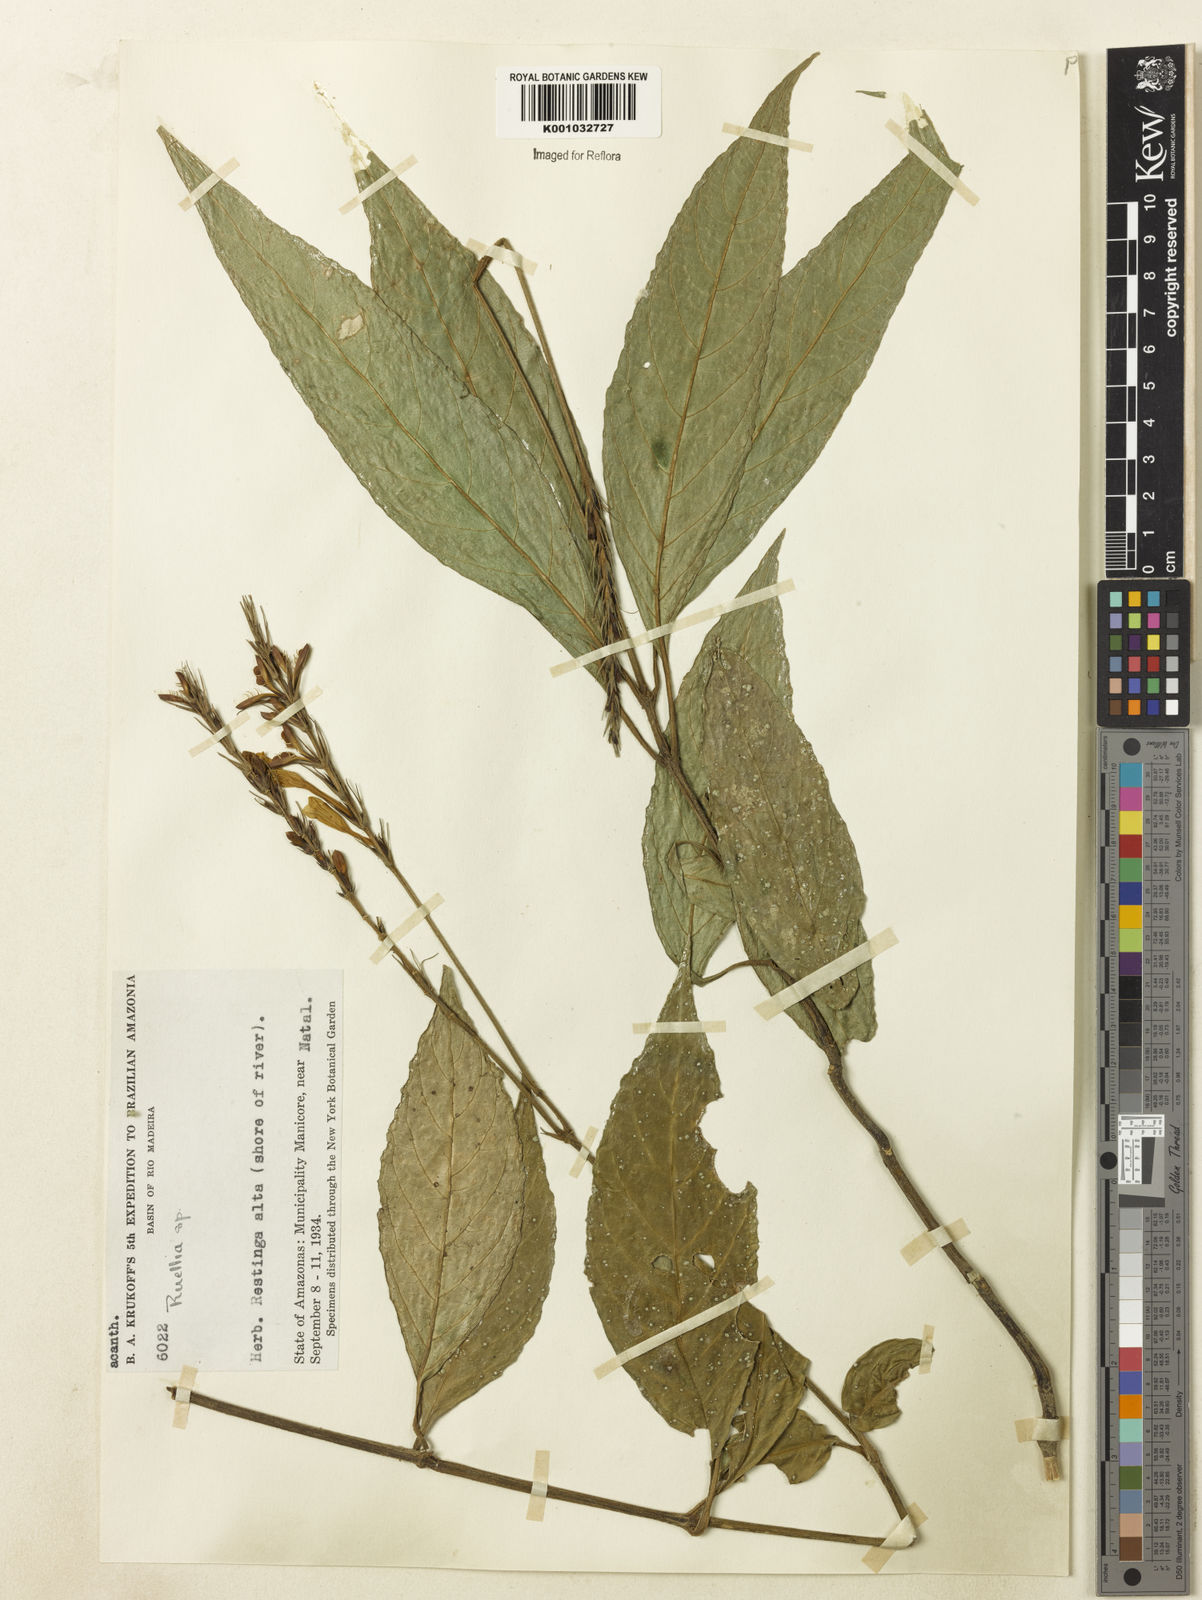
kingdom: Plantae
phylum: Tracheophyta
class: Magnoliopsida
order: Lamiales
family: Acanthaceae
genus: Ruellia
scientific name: Ruellia
